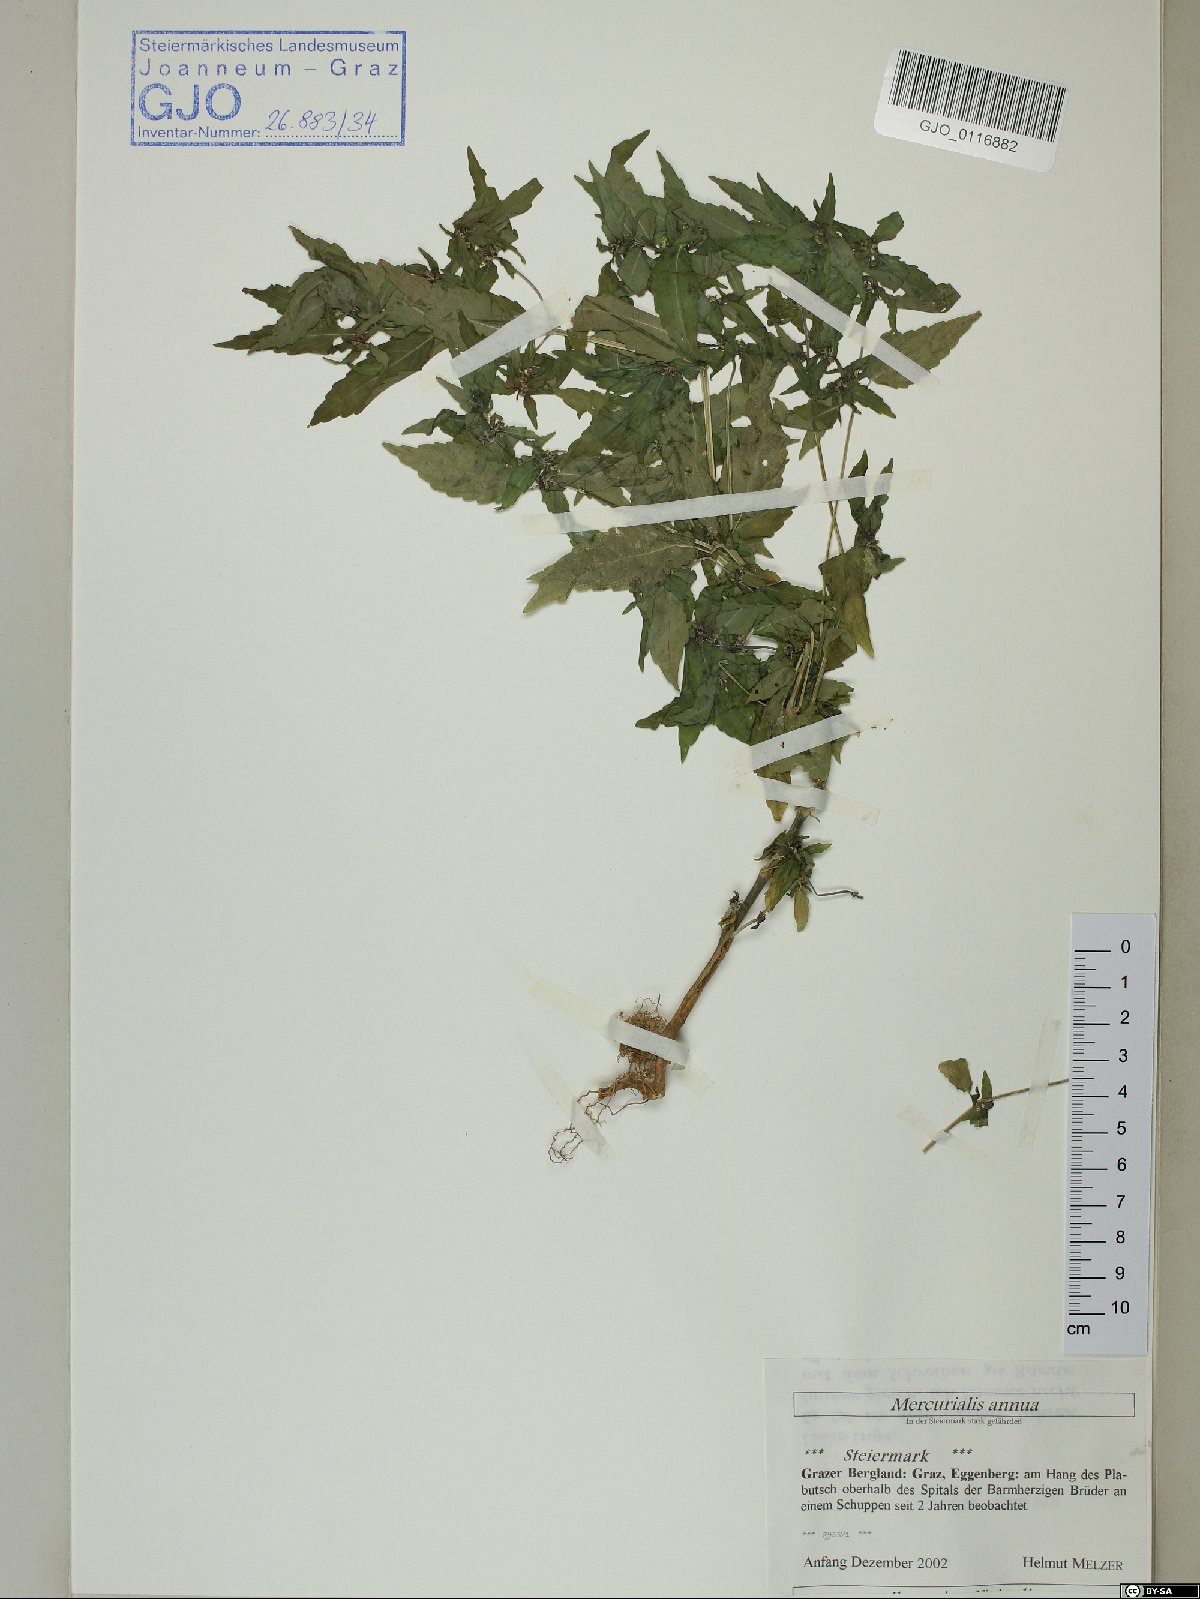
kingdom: Plantae
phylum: Tracheophyta
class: Magnoliopsida
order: Malpighiales
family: Euphorbiaceae
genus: Mercurialis
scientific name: Mercurialis annua
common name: Annual mercury
